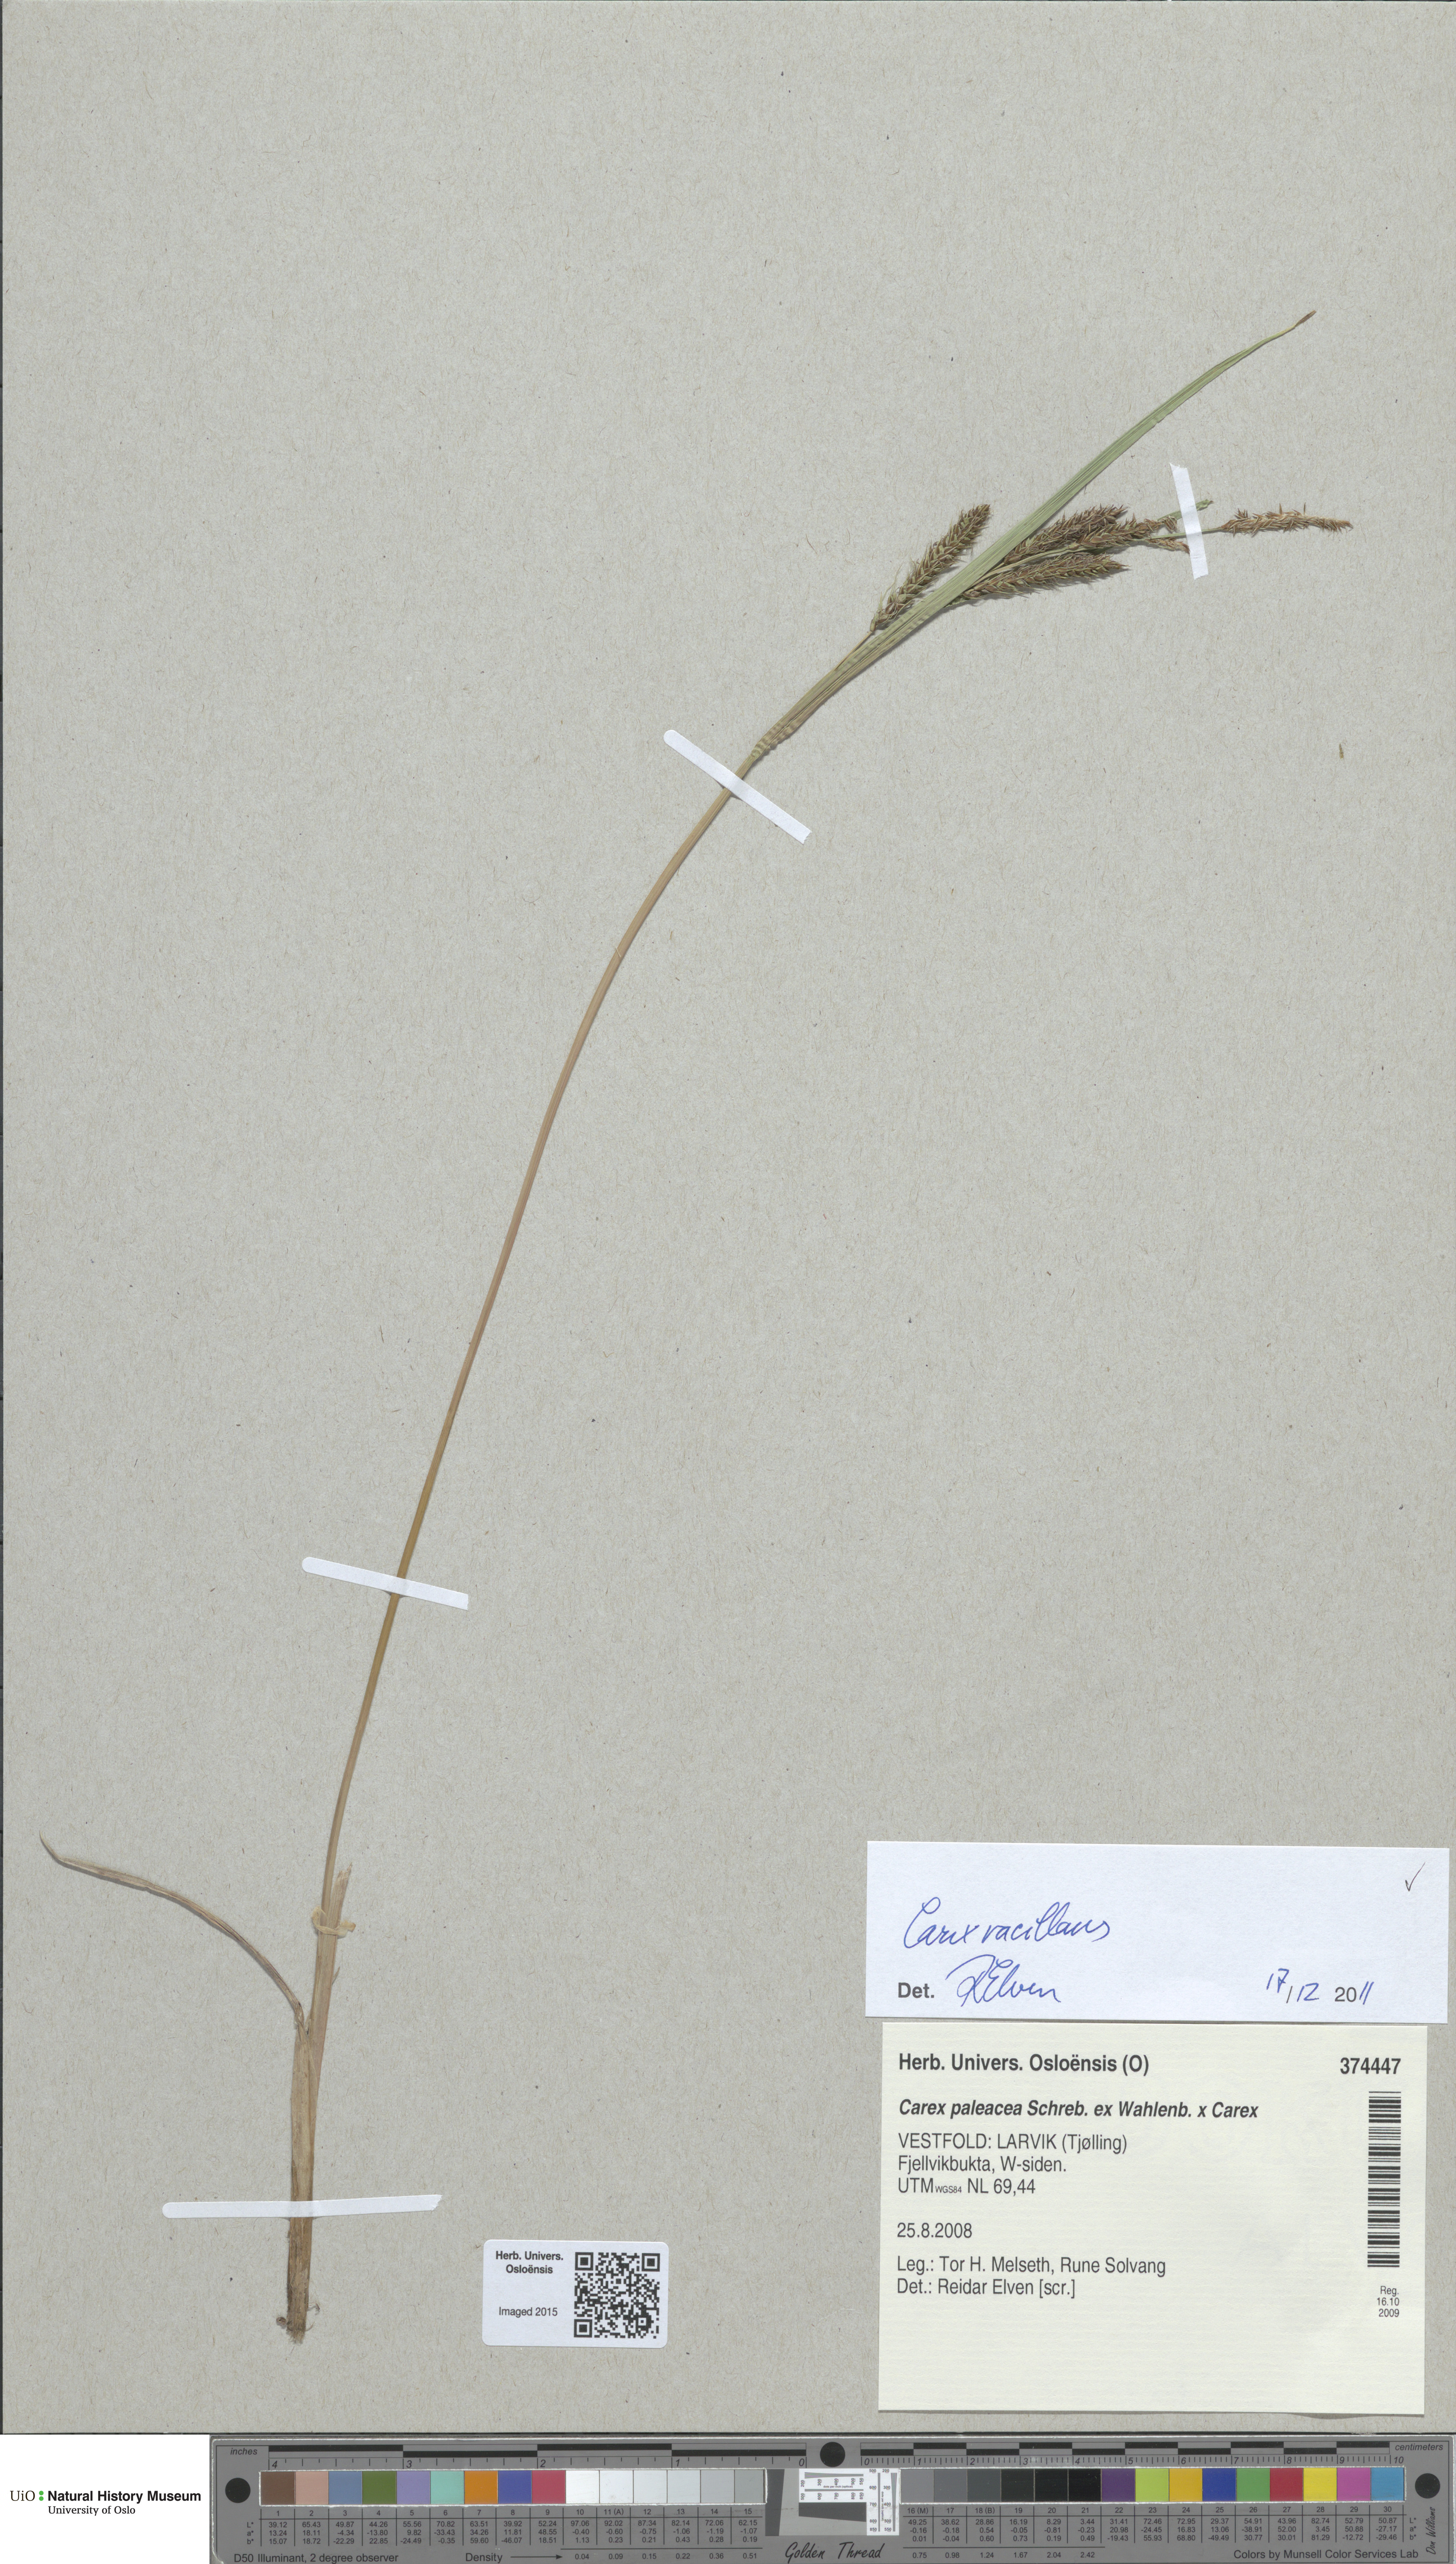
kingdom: Plantae
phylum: Tracheophyta
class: Liliopsida
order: Poales
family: Cyperaceae
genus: Carex
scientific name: Carex vacillans
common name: Sedge
